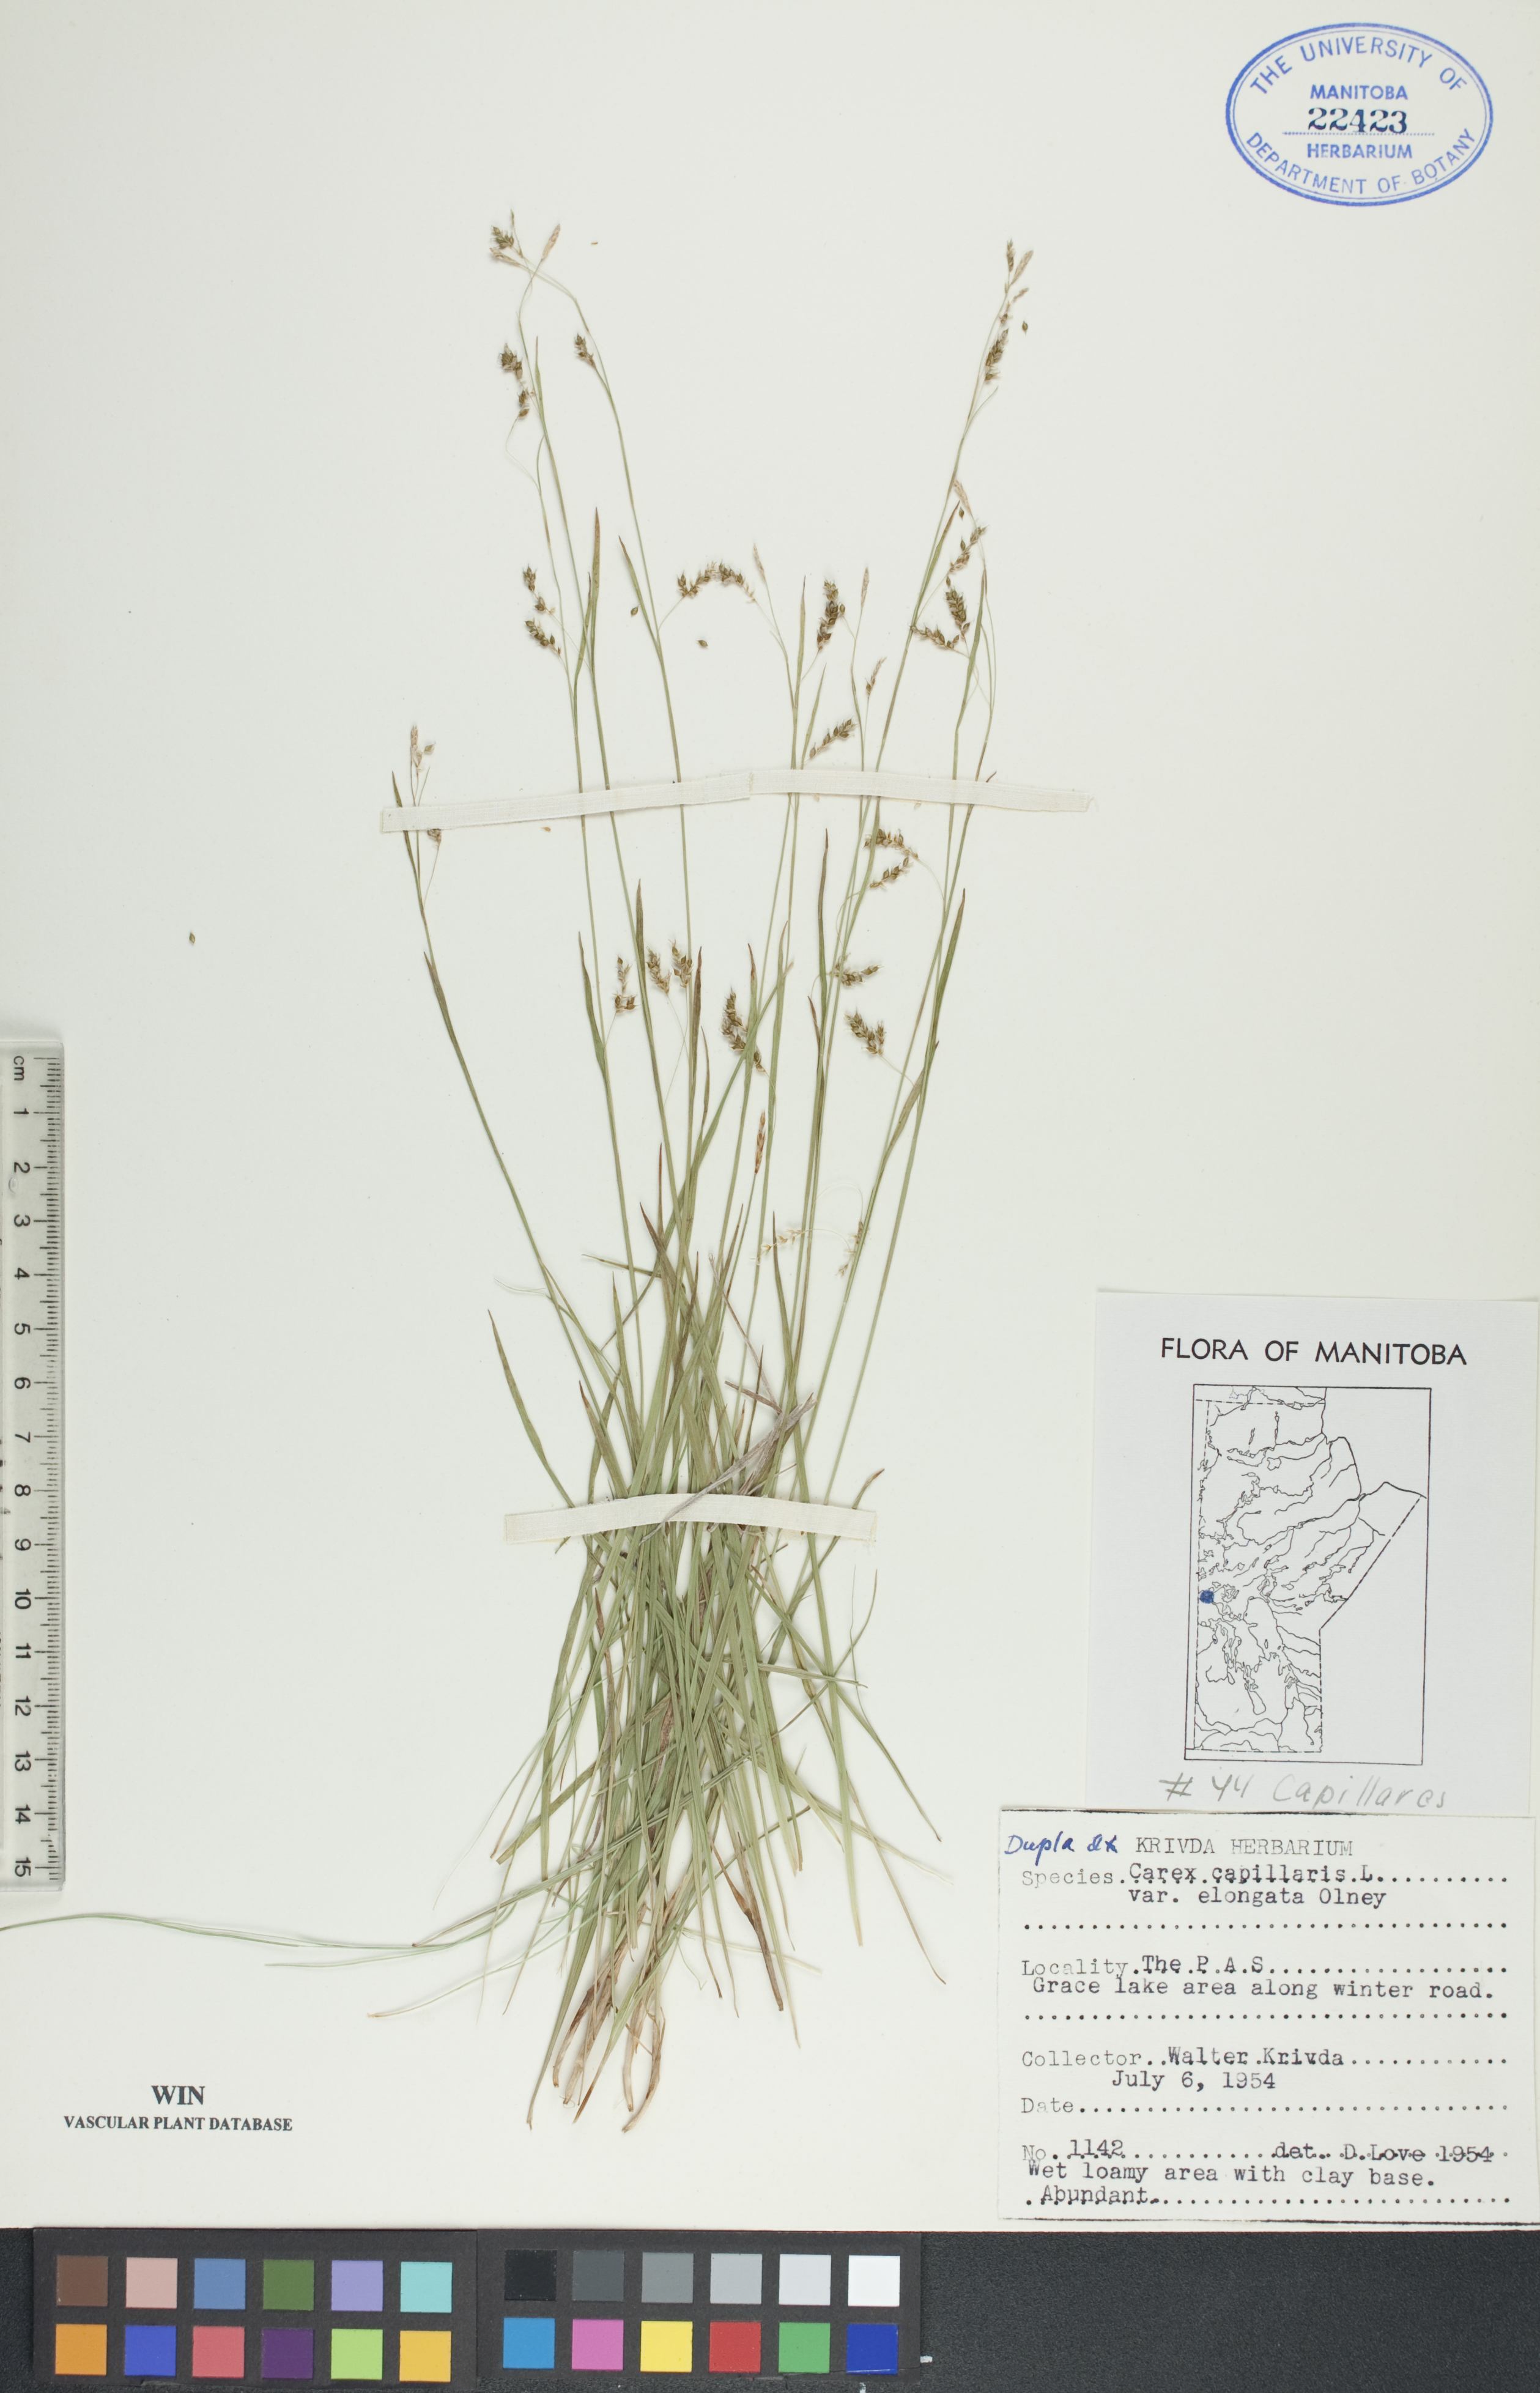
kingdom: Plantae
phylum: Tracheophyta
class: Liliopsida
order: Poales
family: Cyperaceae
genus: Carex
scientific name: Carex capillaris
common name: Hair sedge
